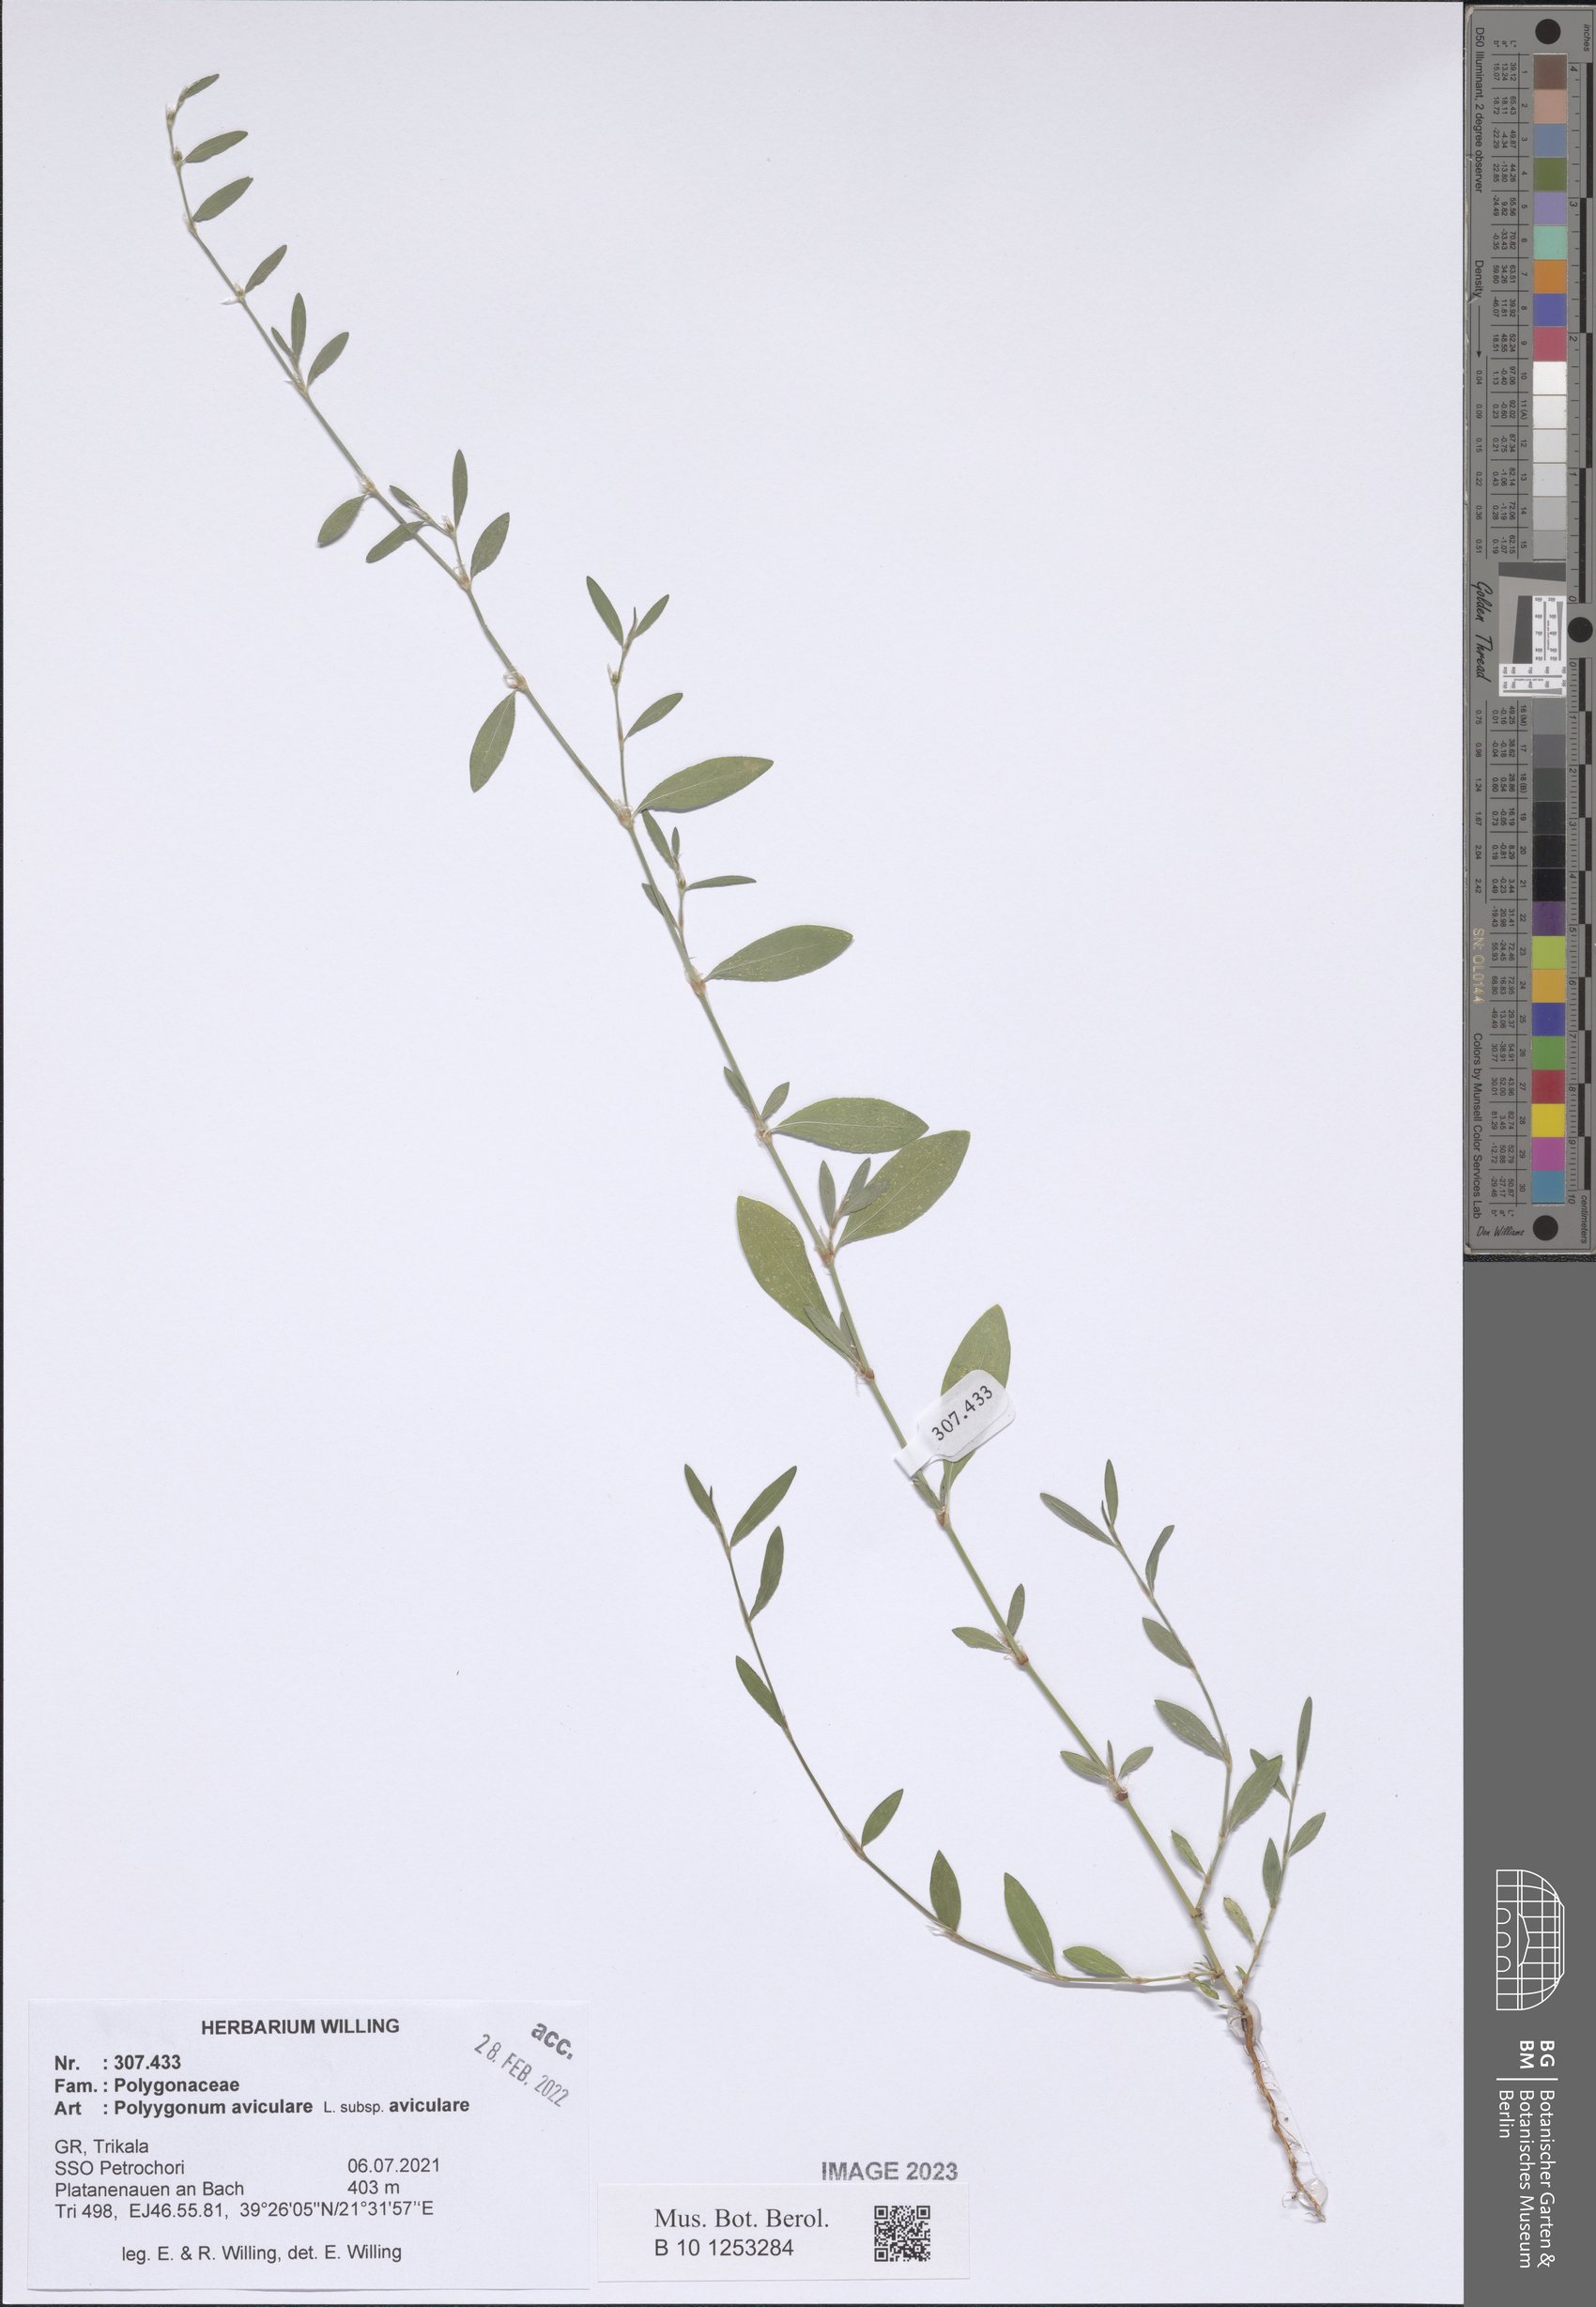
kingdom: Plantae
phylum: Tracheophyta
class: Magnoliopsida
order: Caryophyllales
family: Polygonaceae
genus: Polygonum
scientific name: Polygonum aviculare
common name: Prostrate knotweed
